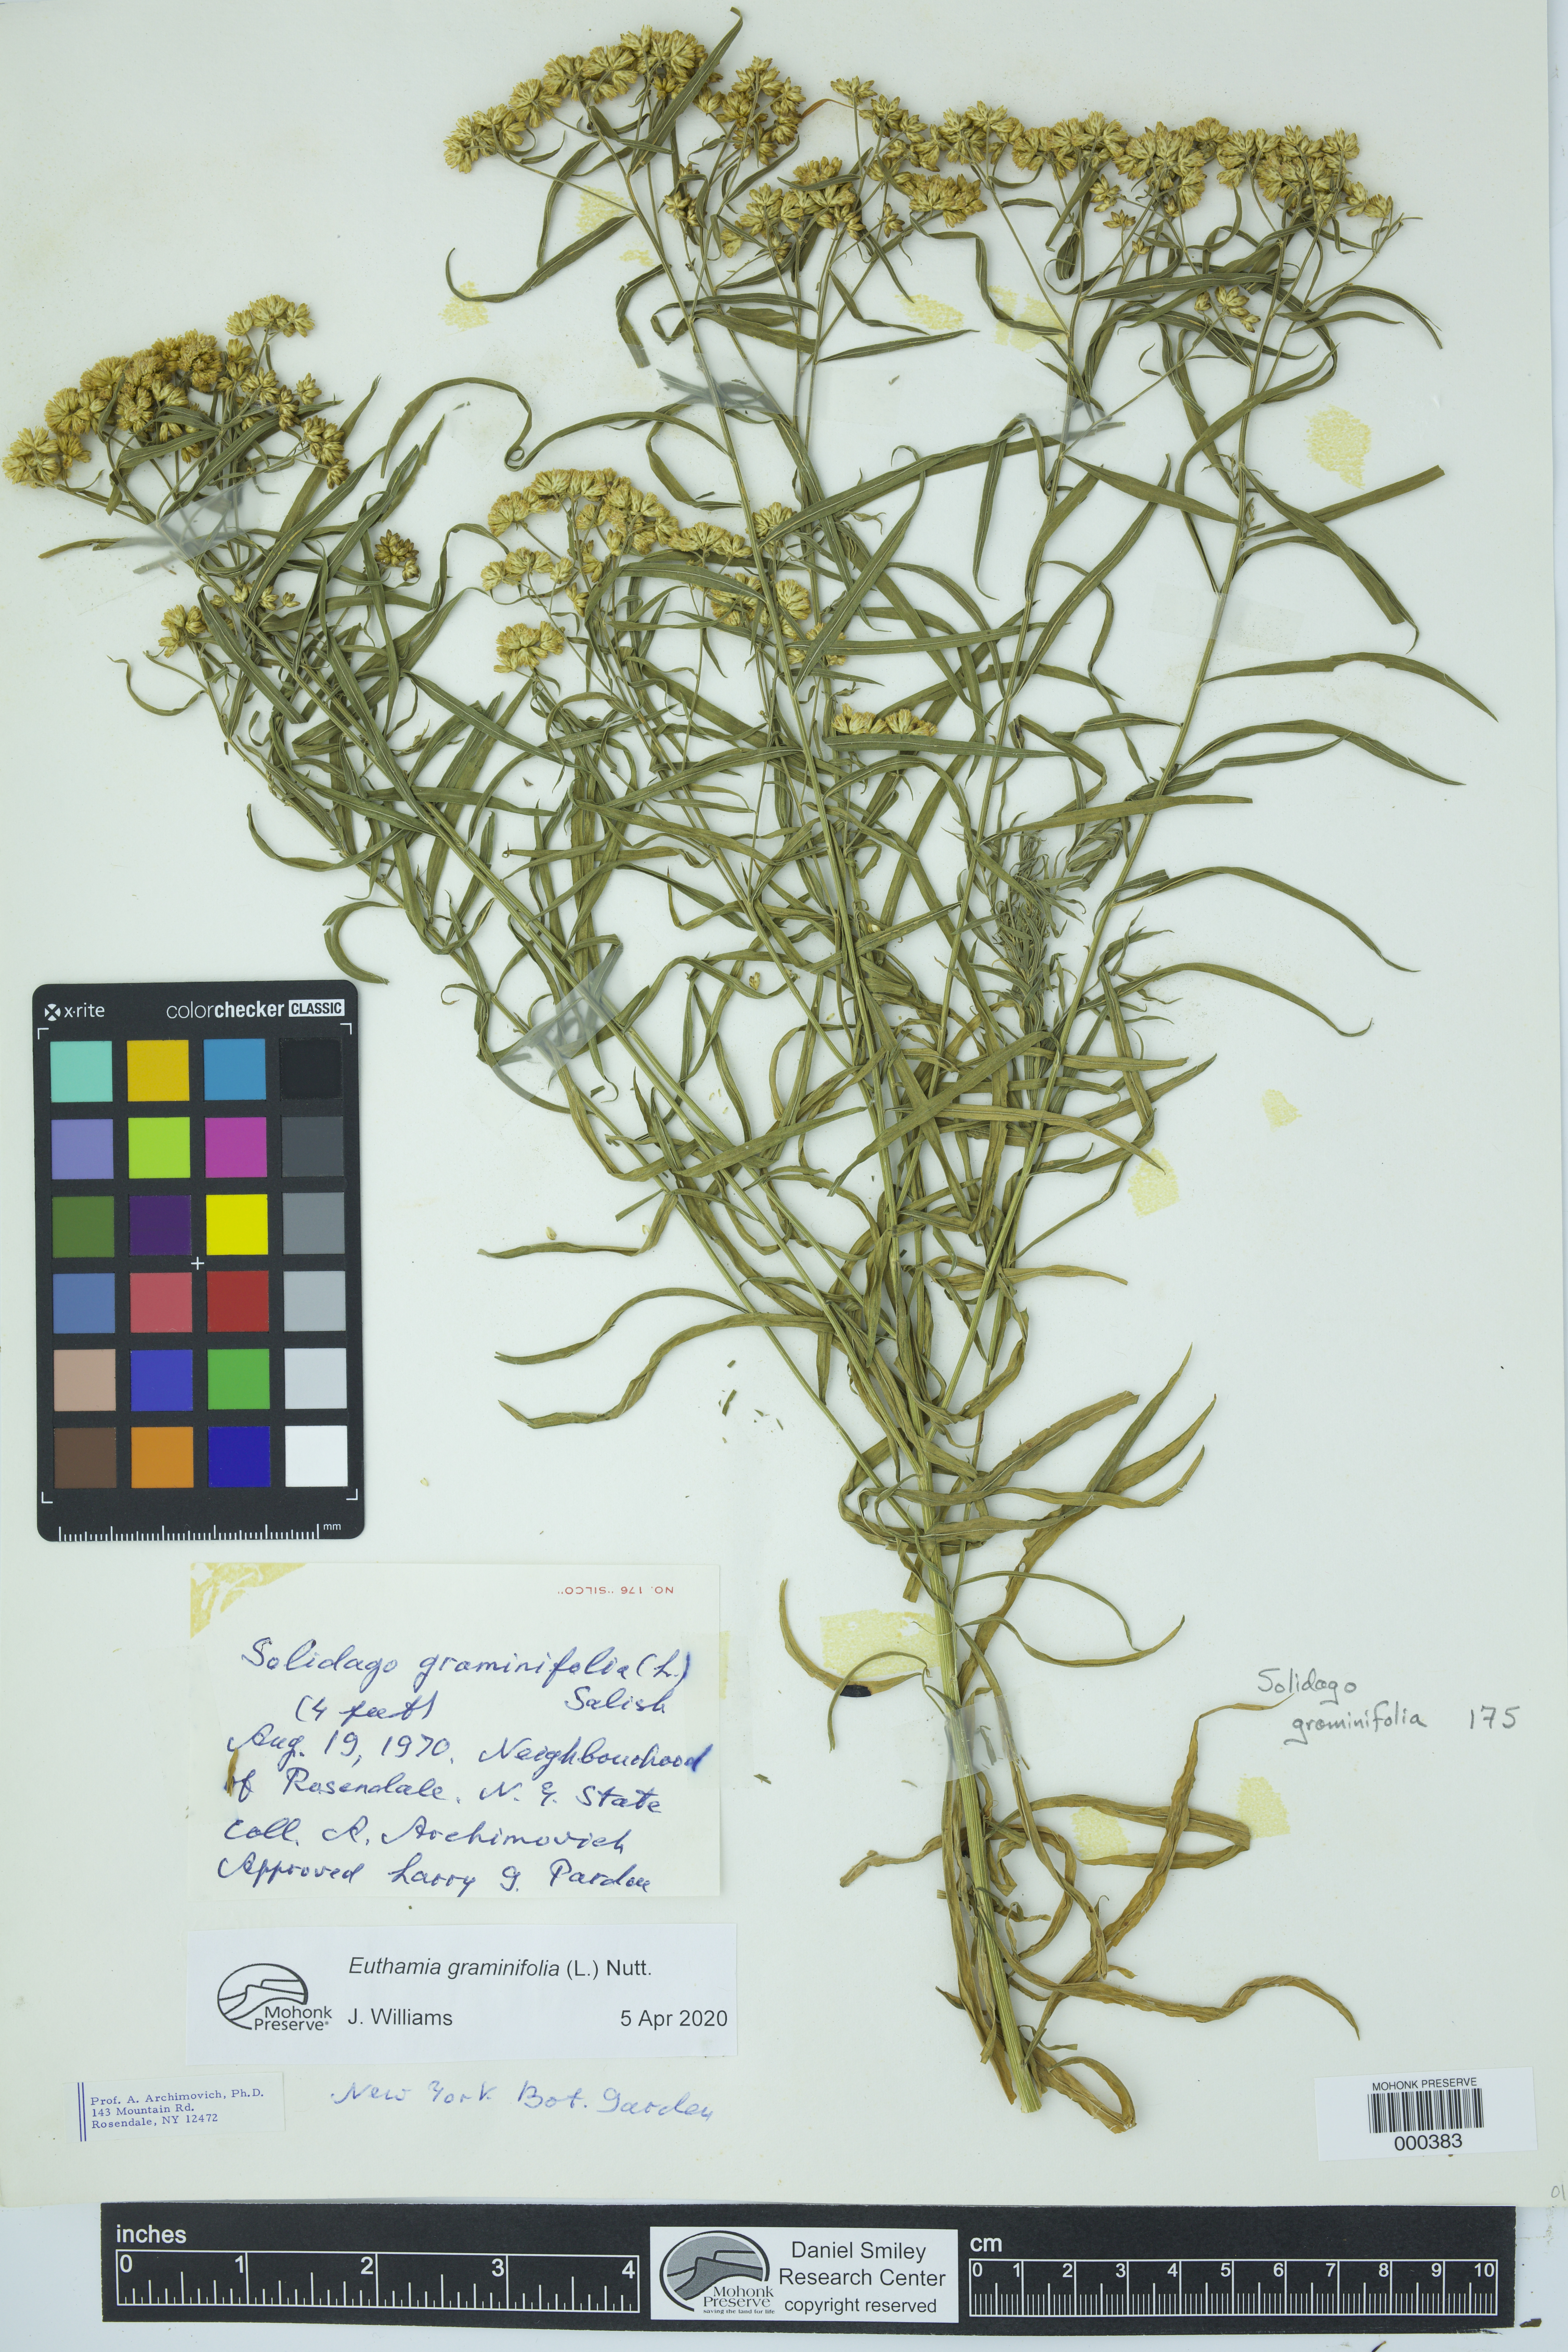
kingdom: Plantae
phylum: Tracheophyta
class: Magnoliopsida
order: Asterales
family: Asteraceae
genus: Euthamia
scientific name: Euthamia graminifolia
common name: Common goldentop
